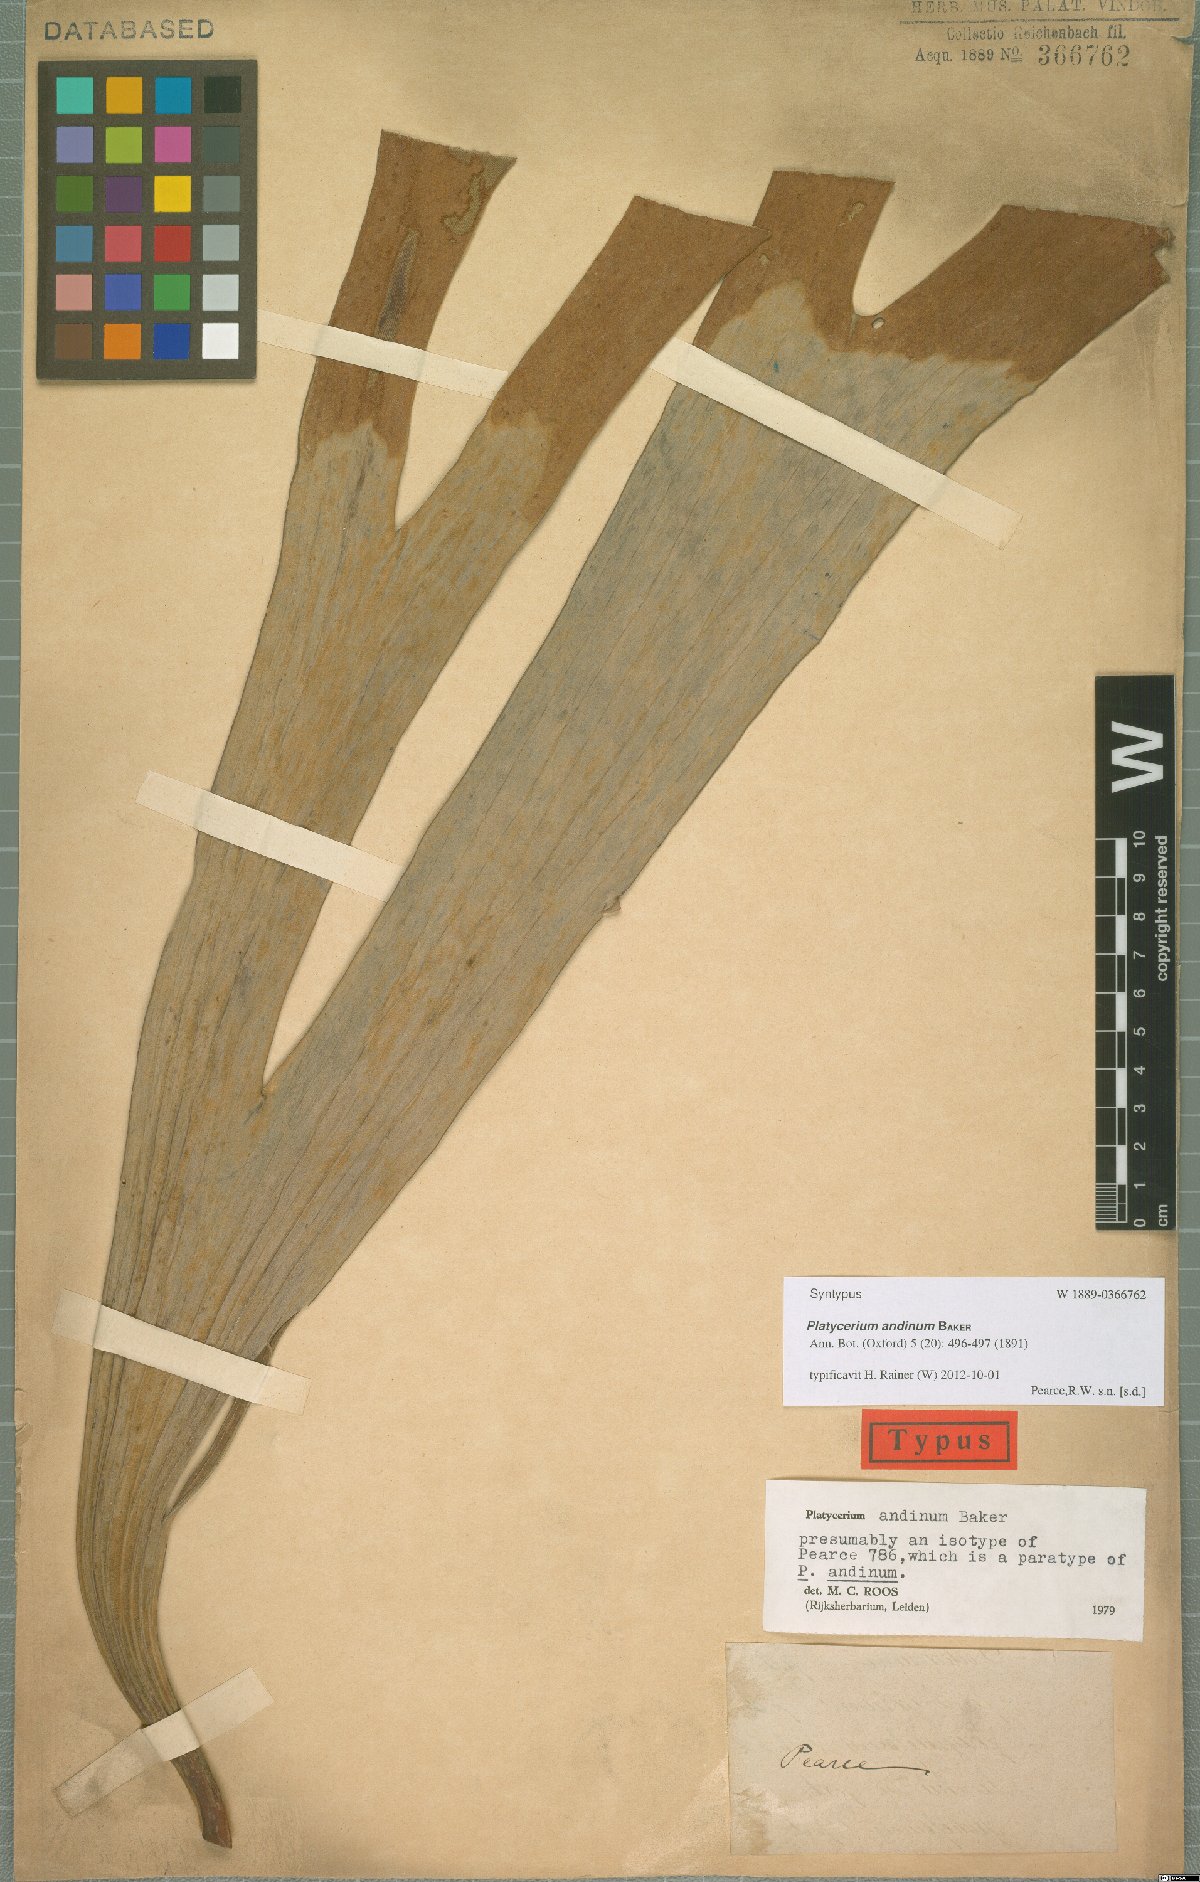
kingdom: Plantae
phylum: Tracheophyta
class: Polypodiopsida
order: Polypodiales
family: Polypodiaceae
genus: Platycerium
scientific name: Platycerium andinum
